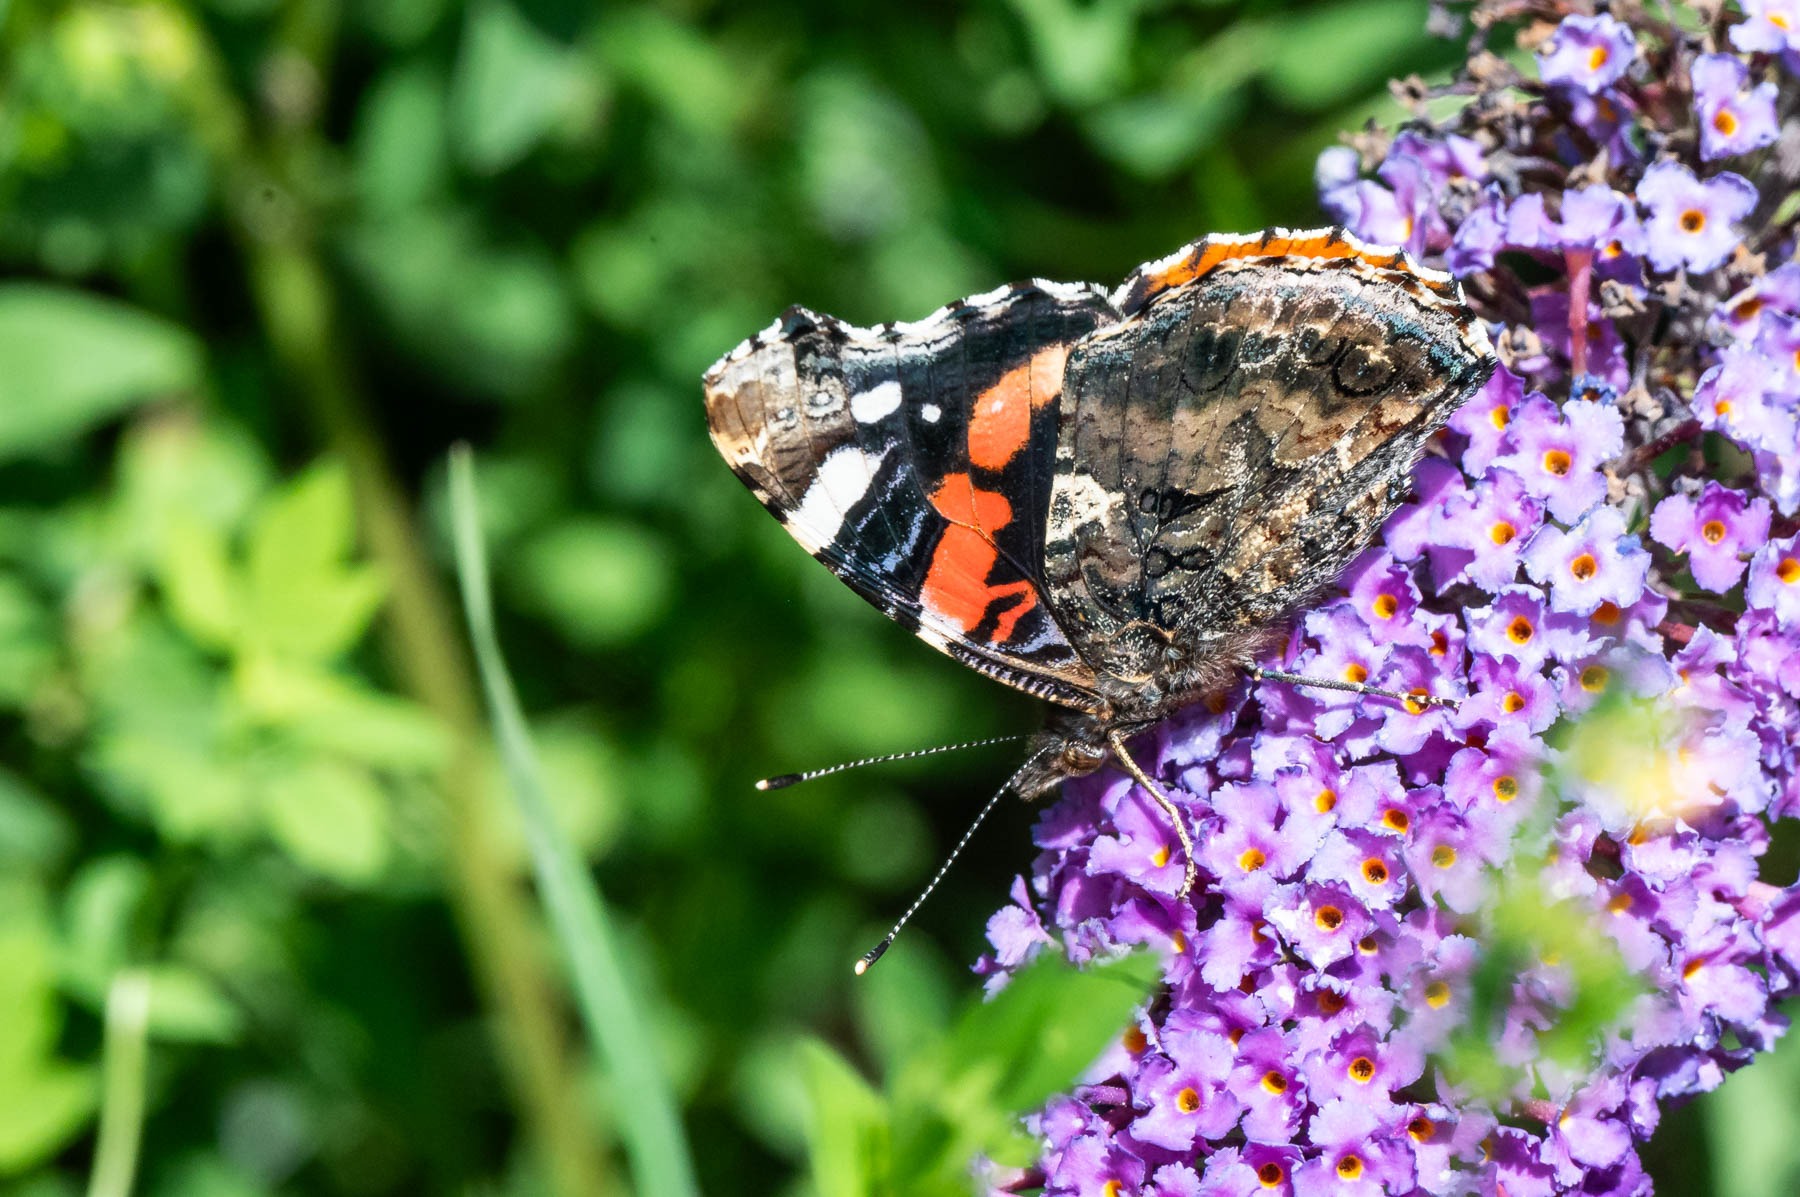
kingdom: Animalia
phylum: Arthropoda
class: Insecta
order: Lepidoptera
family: Nymphalidae
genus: Vanessa
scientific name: Vanessa atalanta
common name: Admiral
